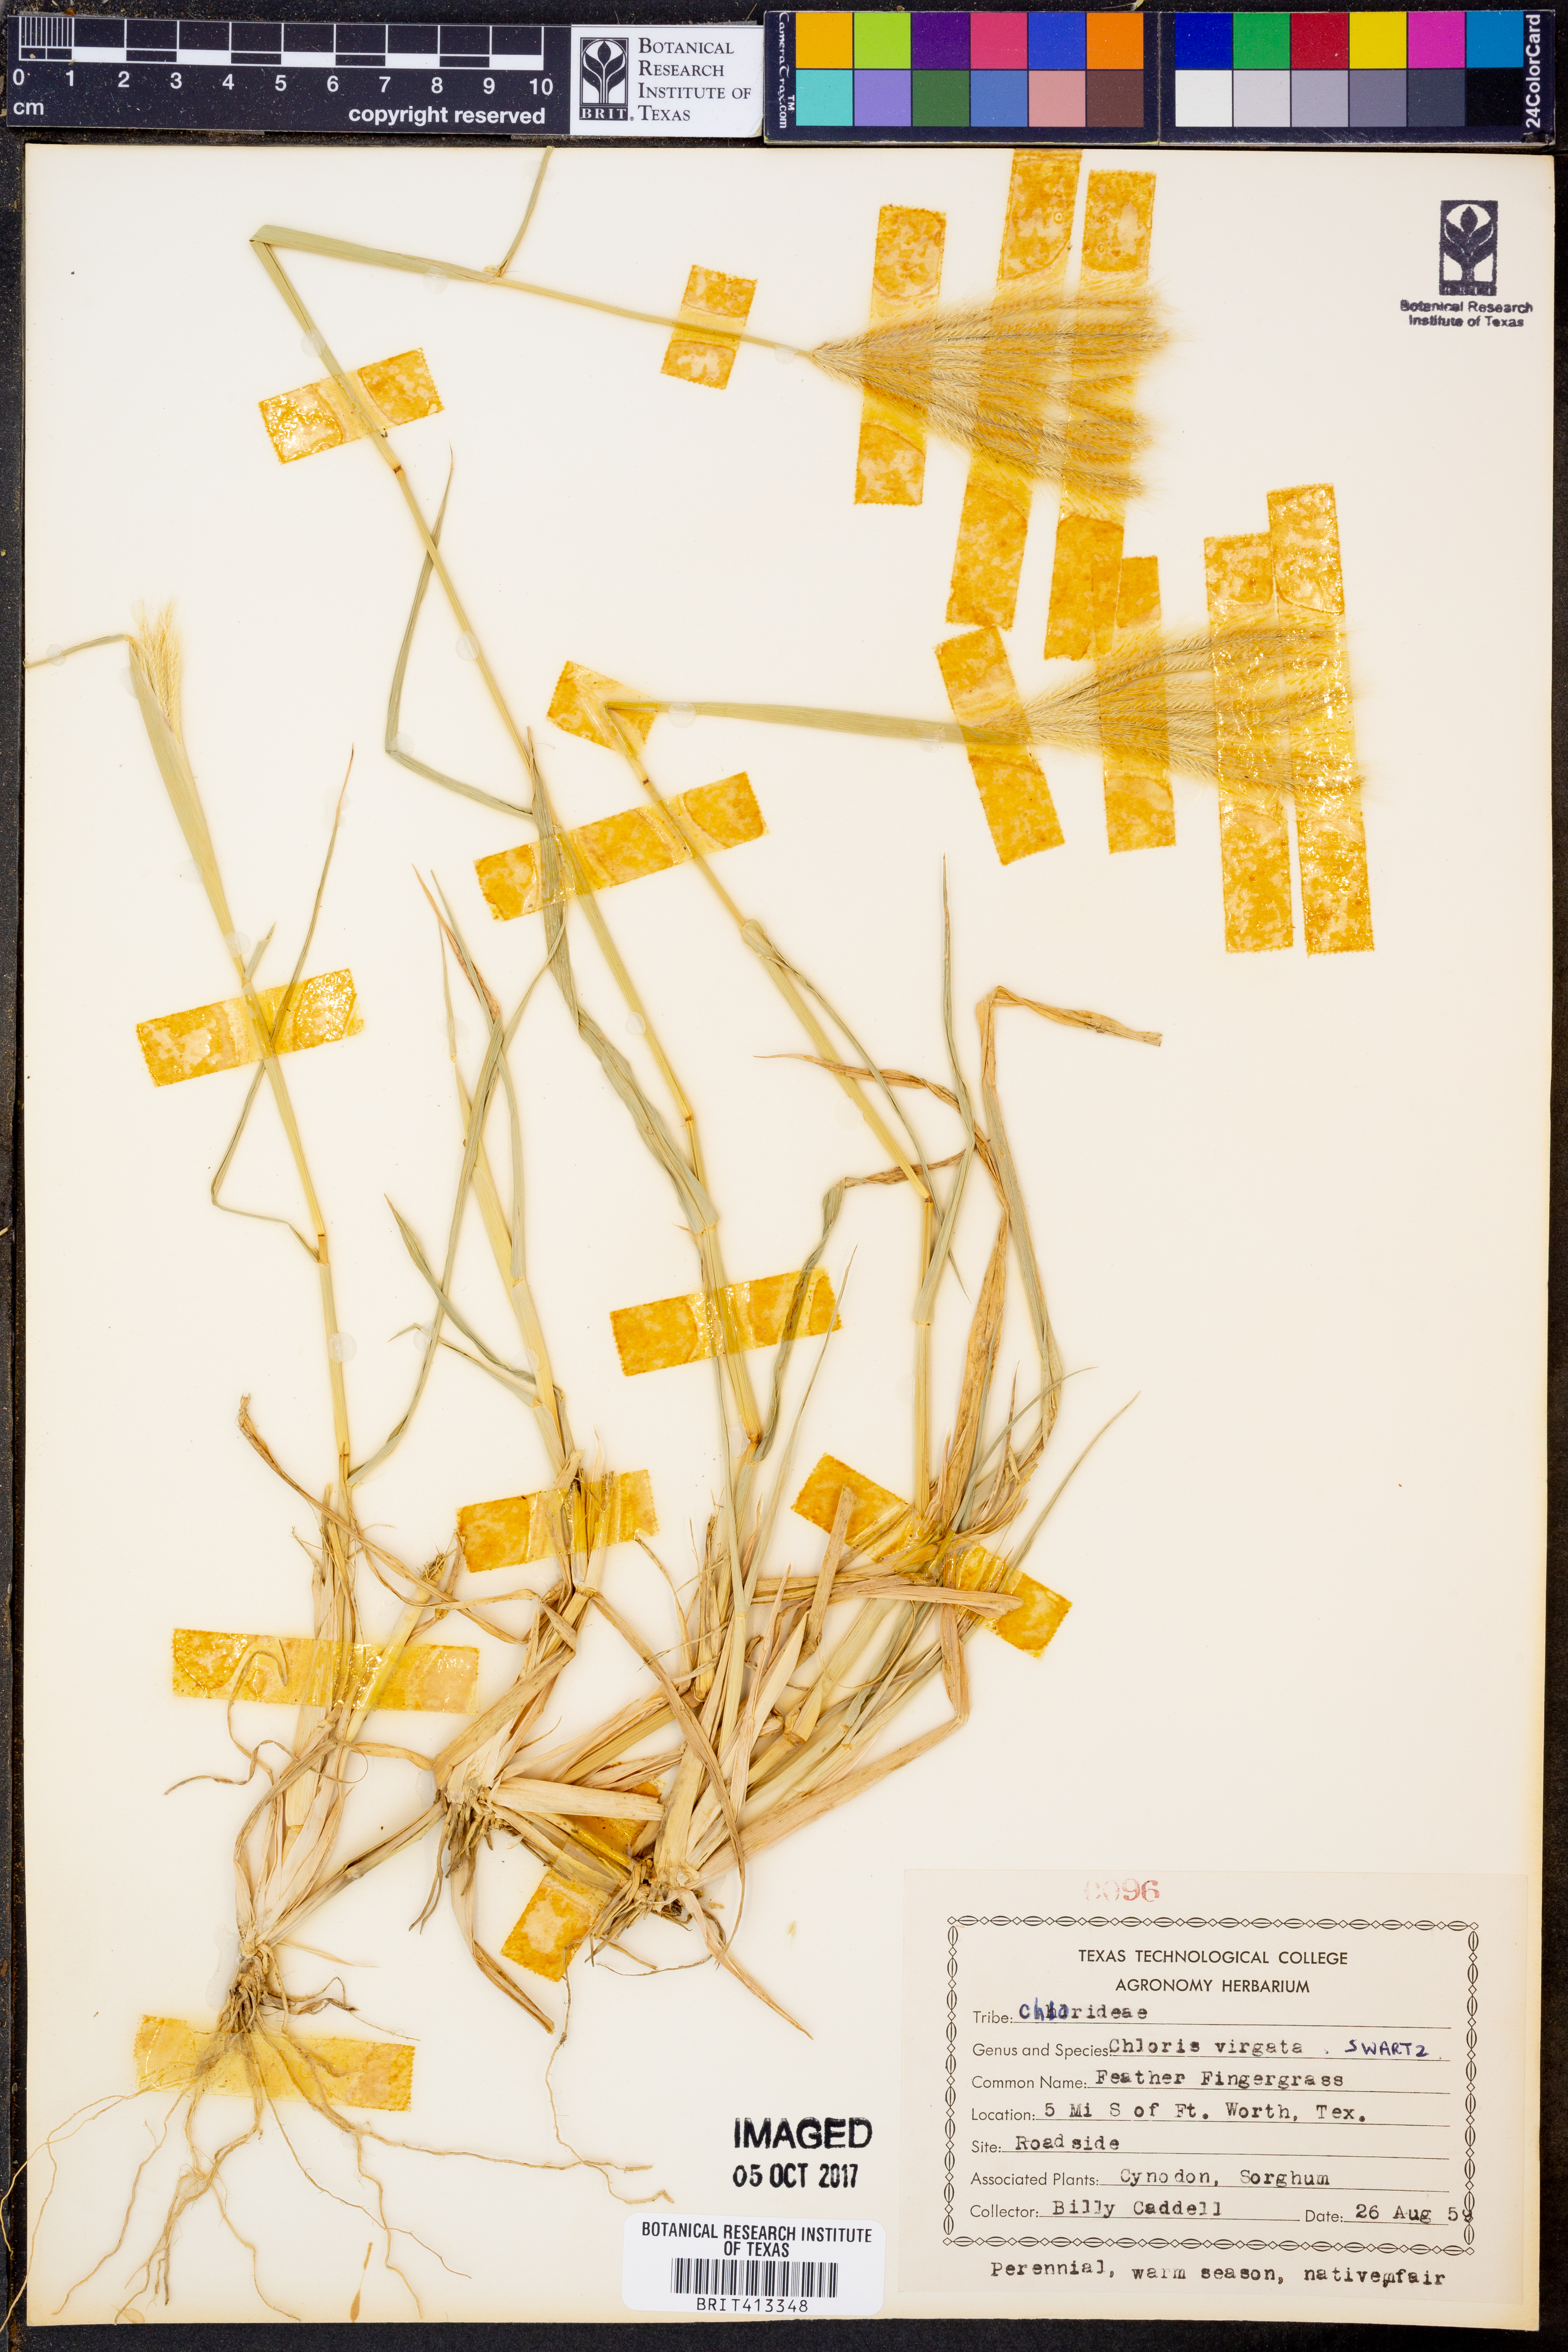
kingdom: Plantae
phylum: Tracheophyta
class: Liliopsida
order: Poales
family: Poaceae
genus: Chloris
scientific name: Chloris virgata
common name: Feathery rhodes-grass
